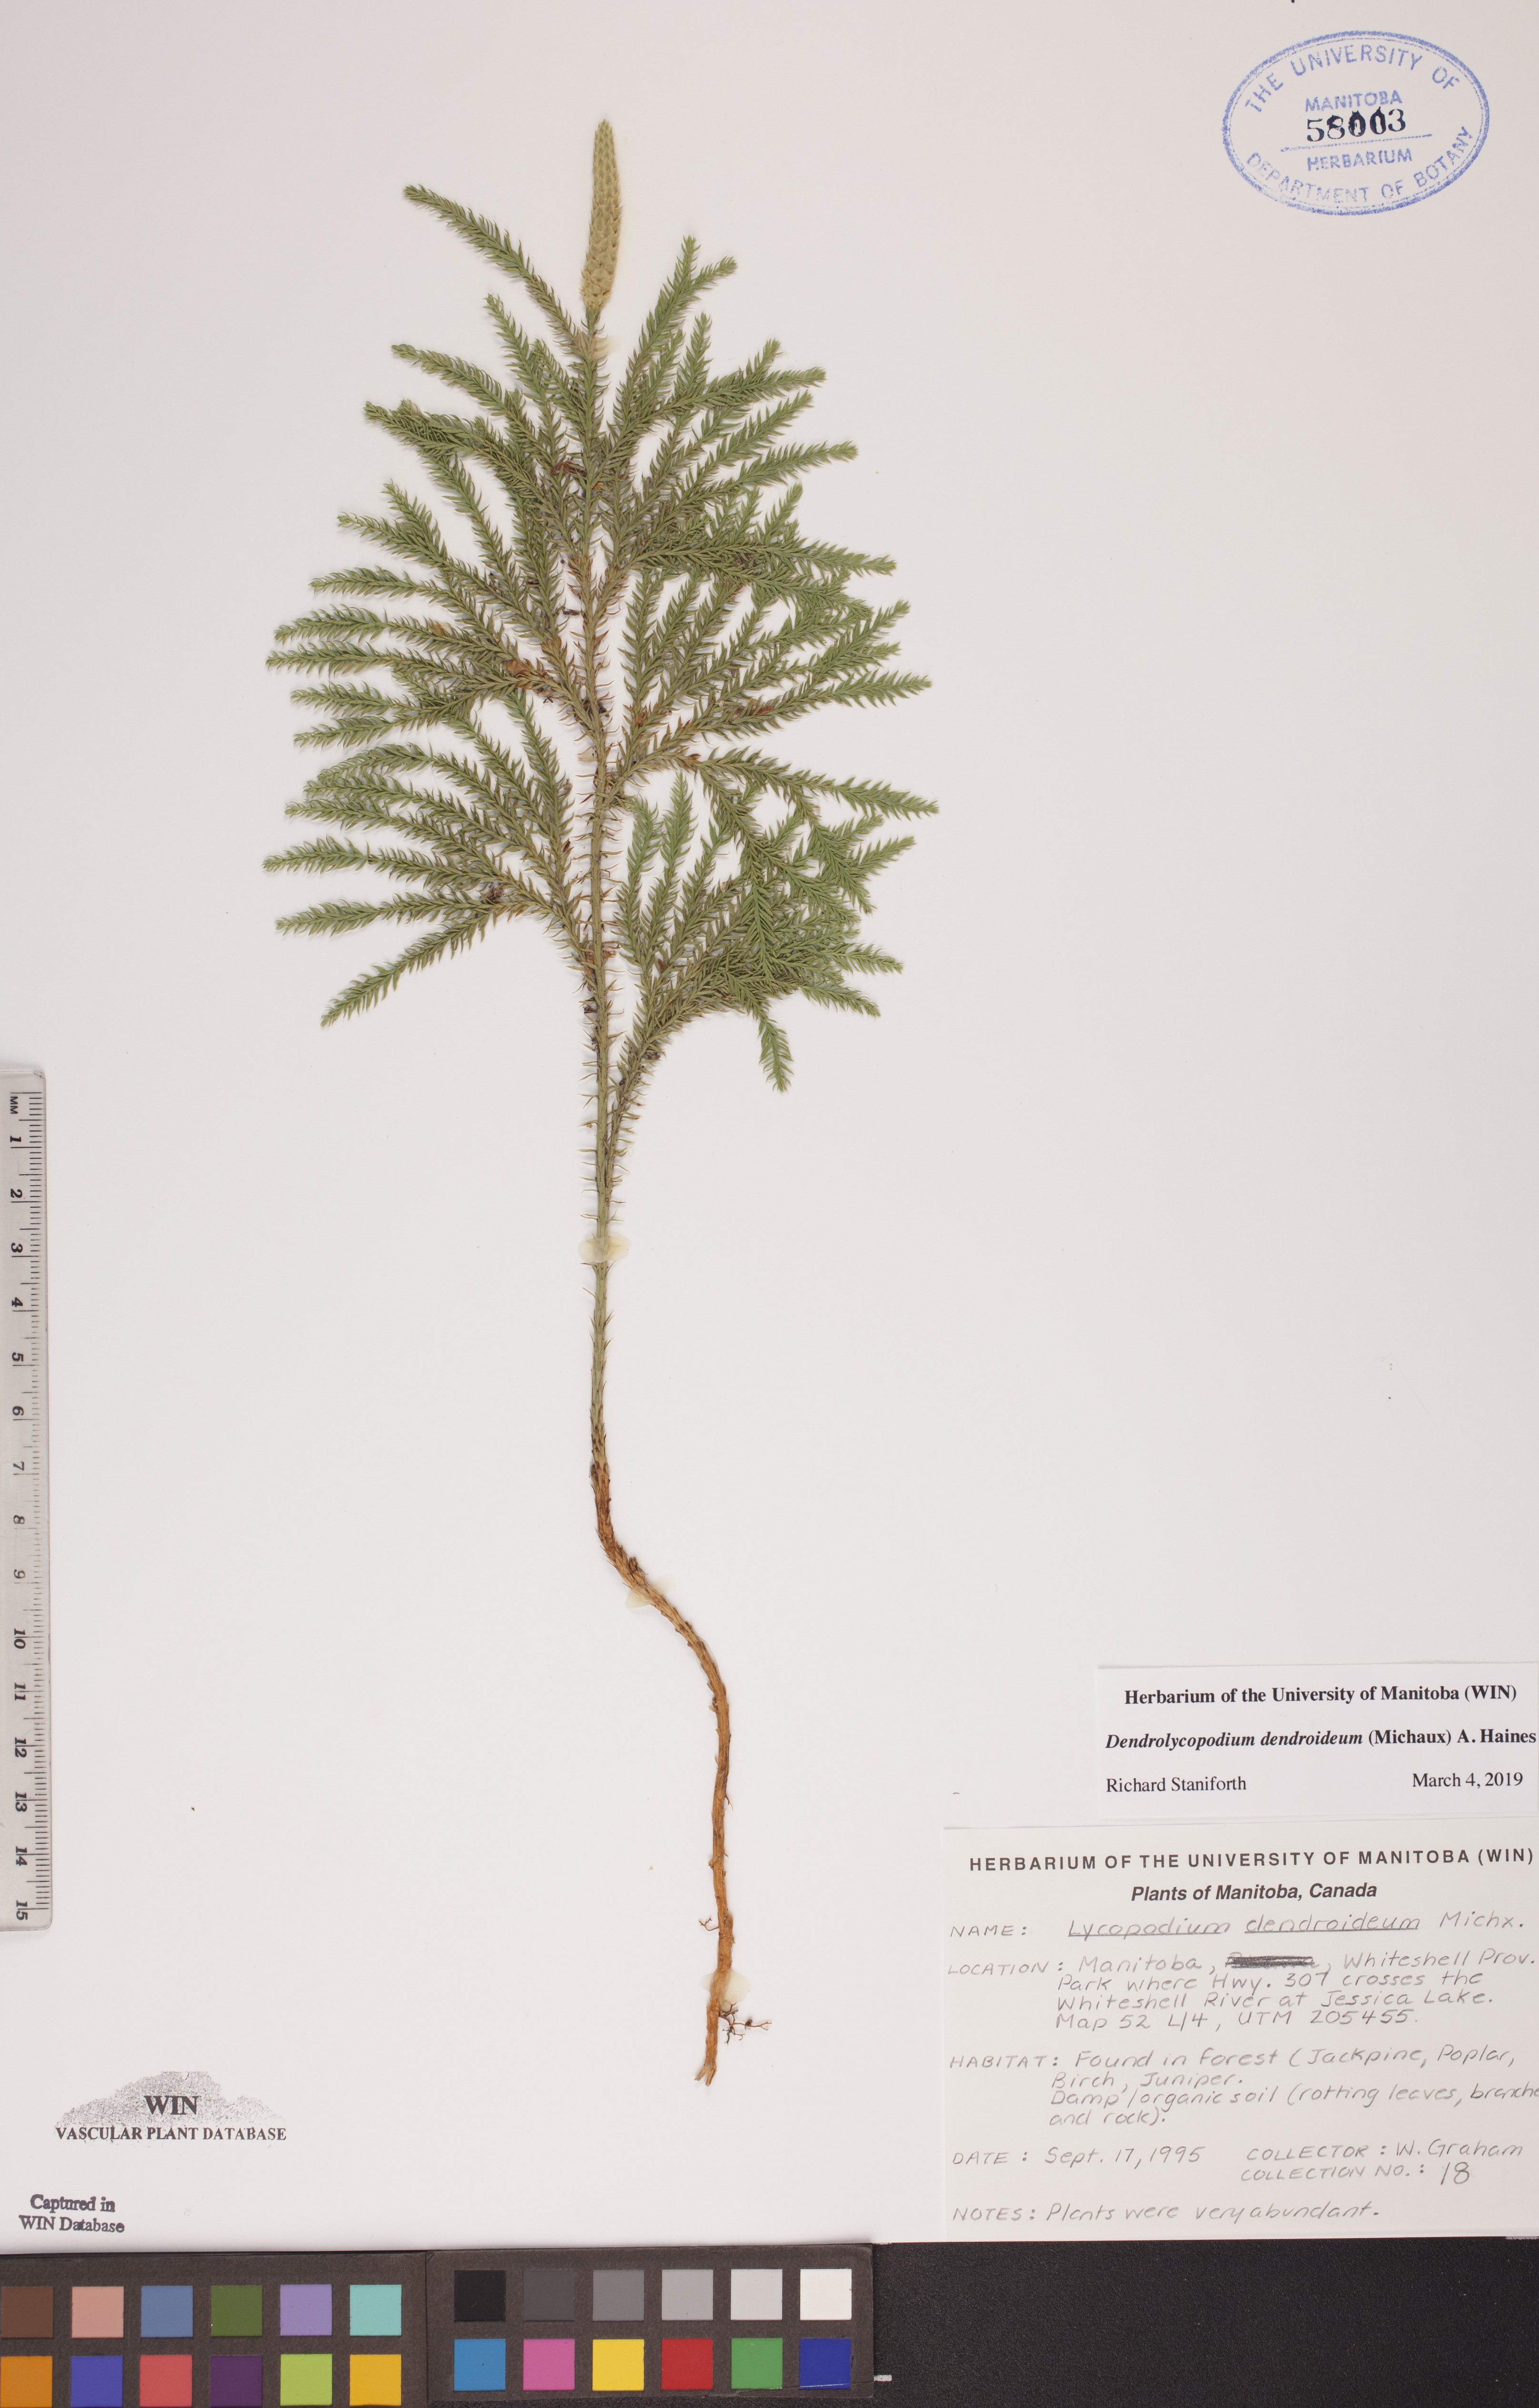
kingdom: Plantae
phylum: Tracheophyta
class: Lycopodiopsida
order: Lycopodiales
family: Lycopodiaceae
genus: Dendrolycopodium
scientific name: Dendrolycopodium dendroideum
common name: Northern tree-clubmoss
